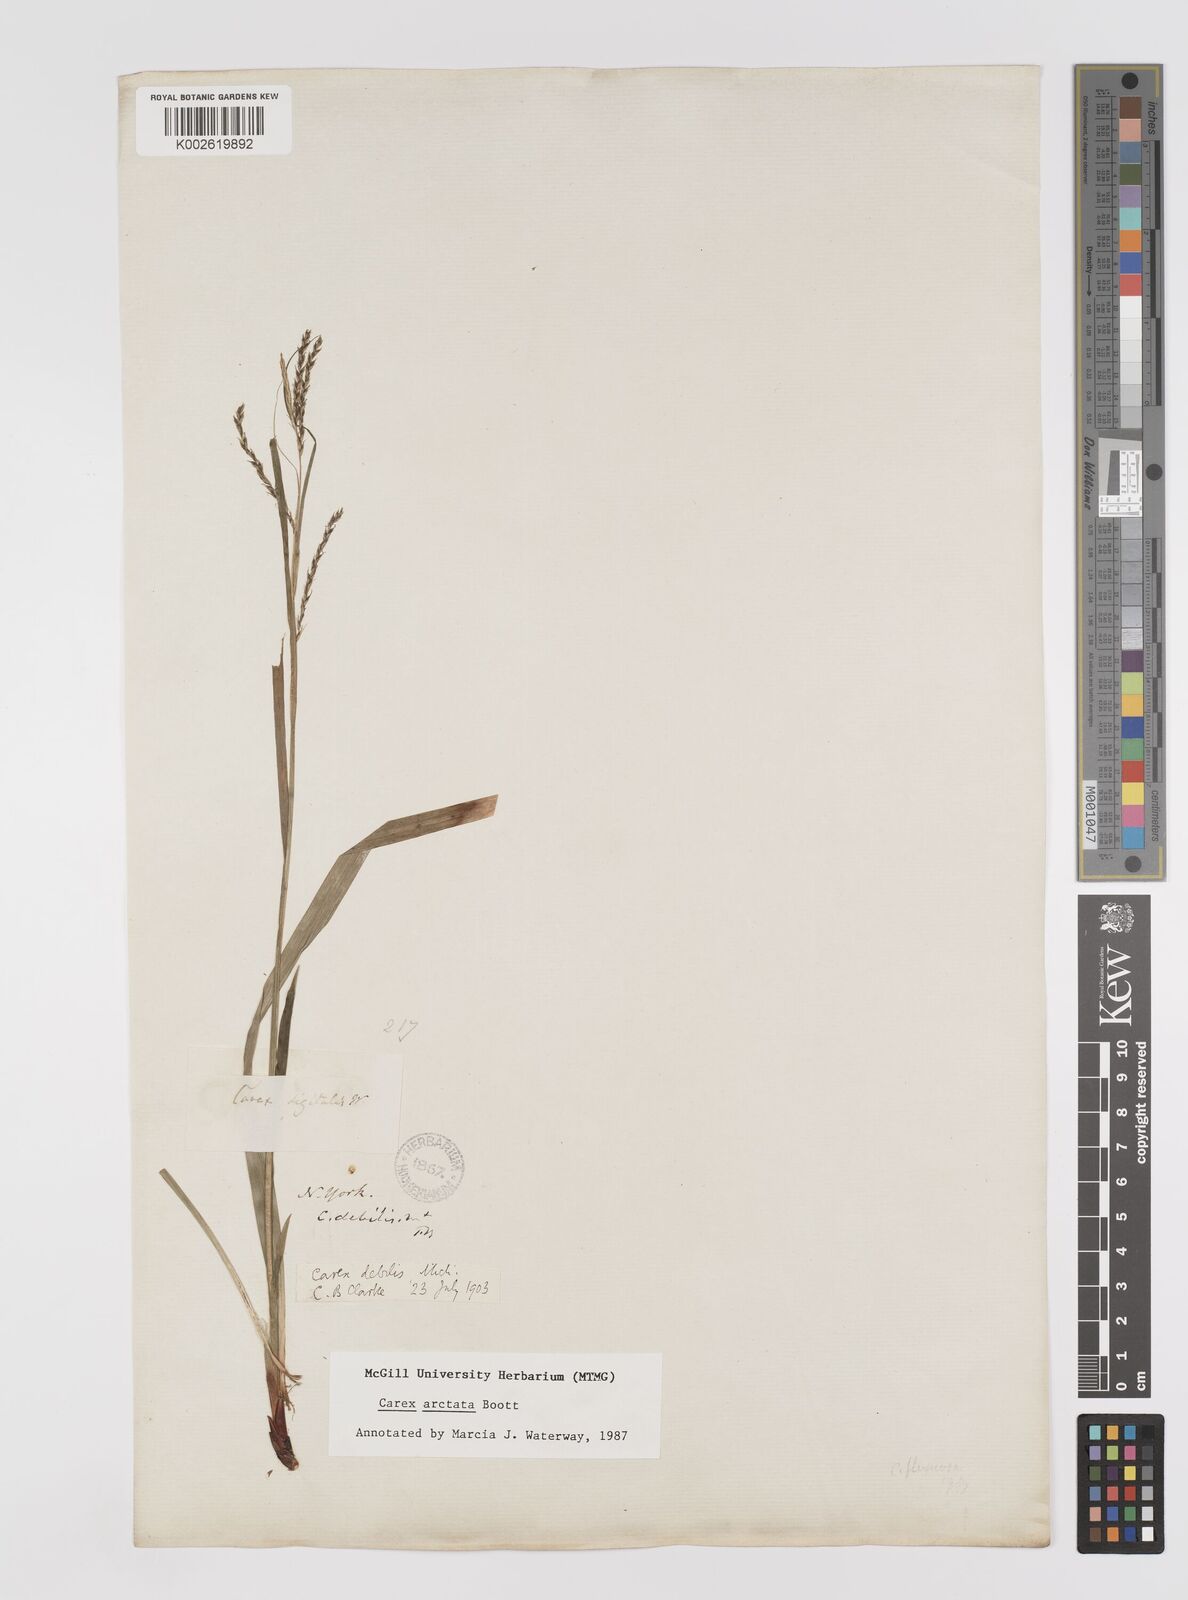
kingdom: Plantae
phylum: Tracheophyta
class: Liliopsida
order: Poales
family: Cyperaceae
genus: Carex
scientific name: Carex arctata
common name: Black sedge
